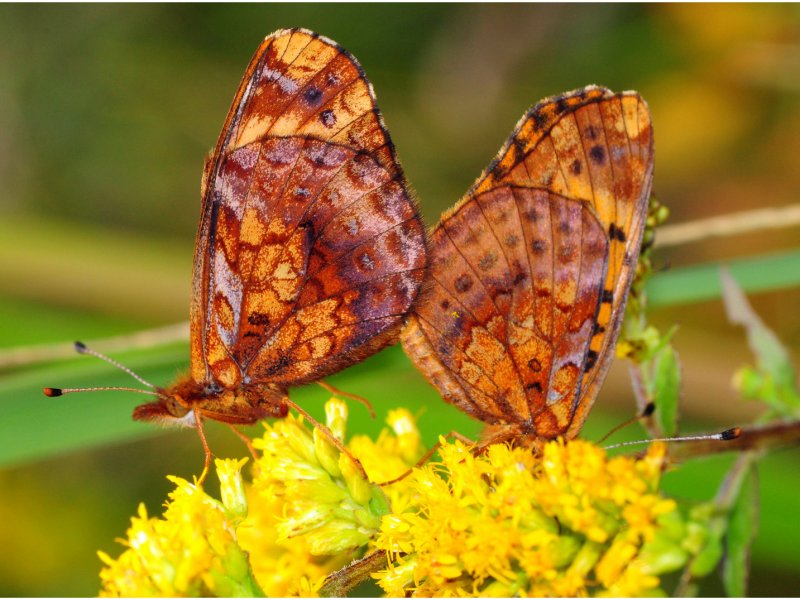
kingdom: Animalia
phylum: Arthropoda
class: Insecta
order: Lepidoptera
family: Nymphalidae
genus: Clossiana
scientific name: Clossiana toddi
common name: Meadow Fritillary
